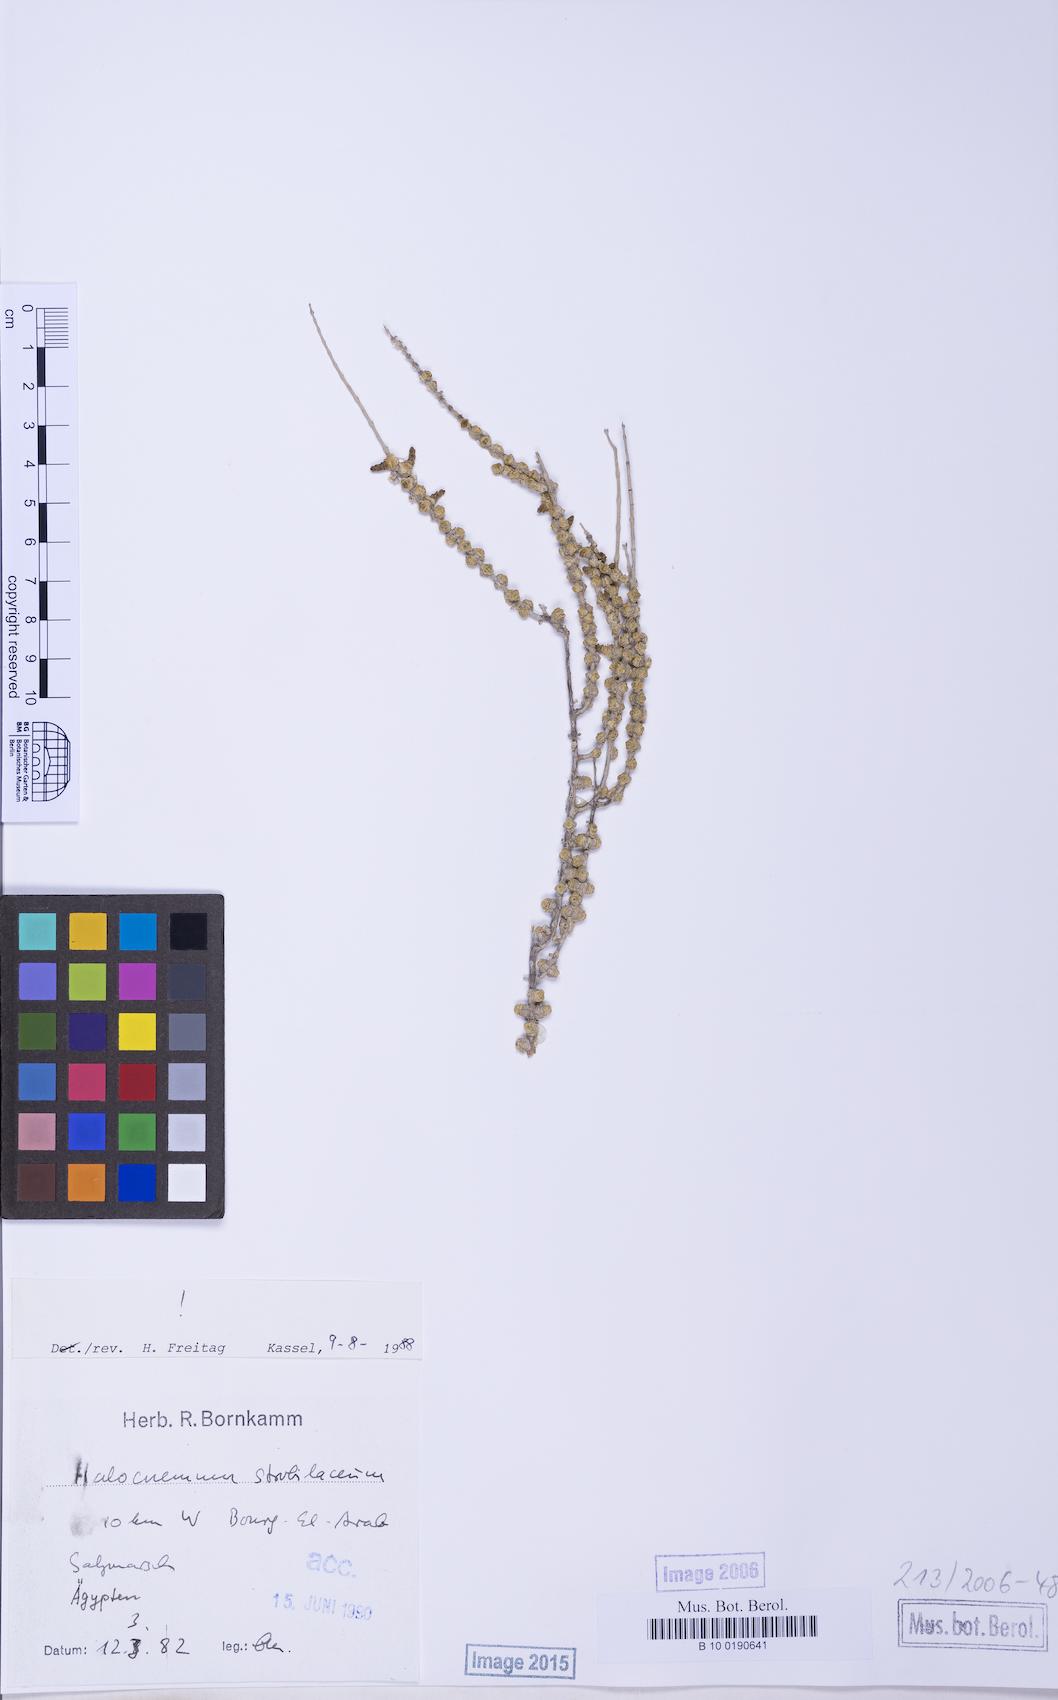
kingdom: Plantae
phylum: Tracheophyta
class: Magnoliopsida
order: Caryophyllales
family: Amaranthaceae
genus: Halocnemum
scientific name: Halocnemum strobilaceum
